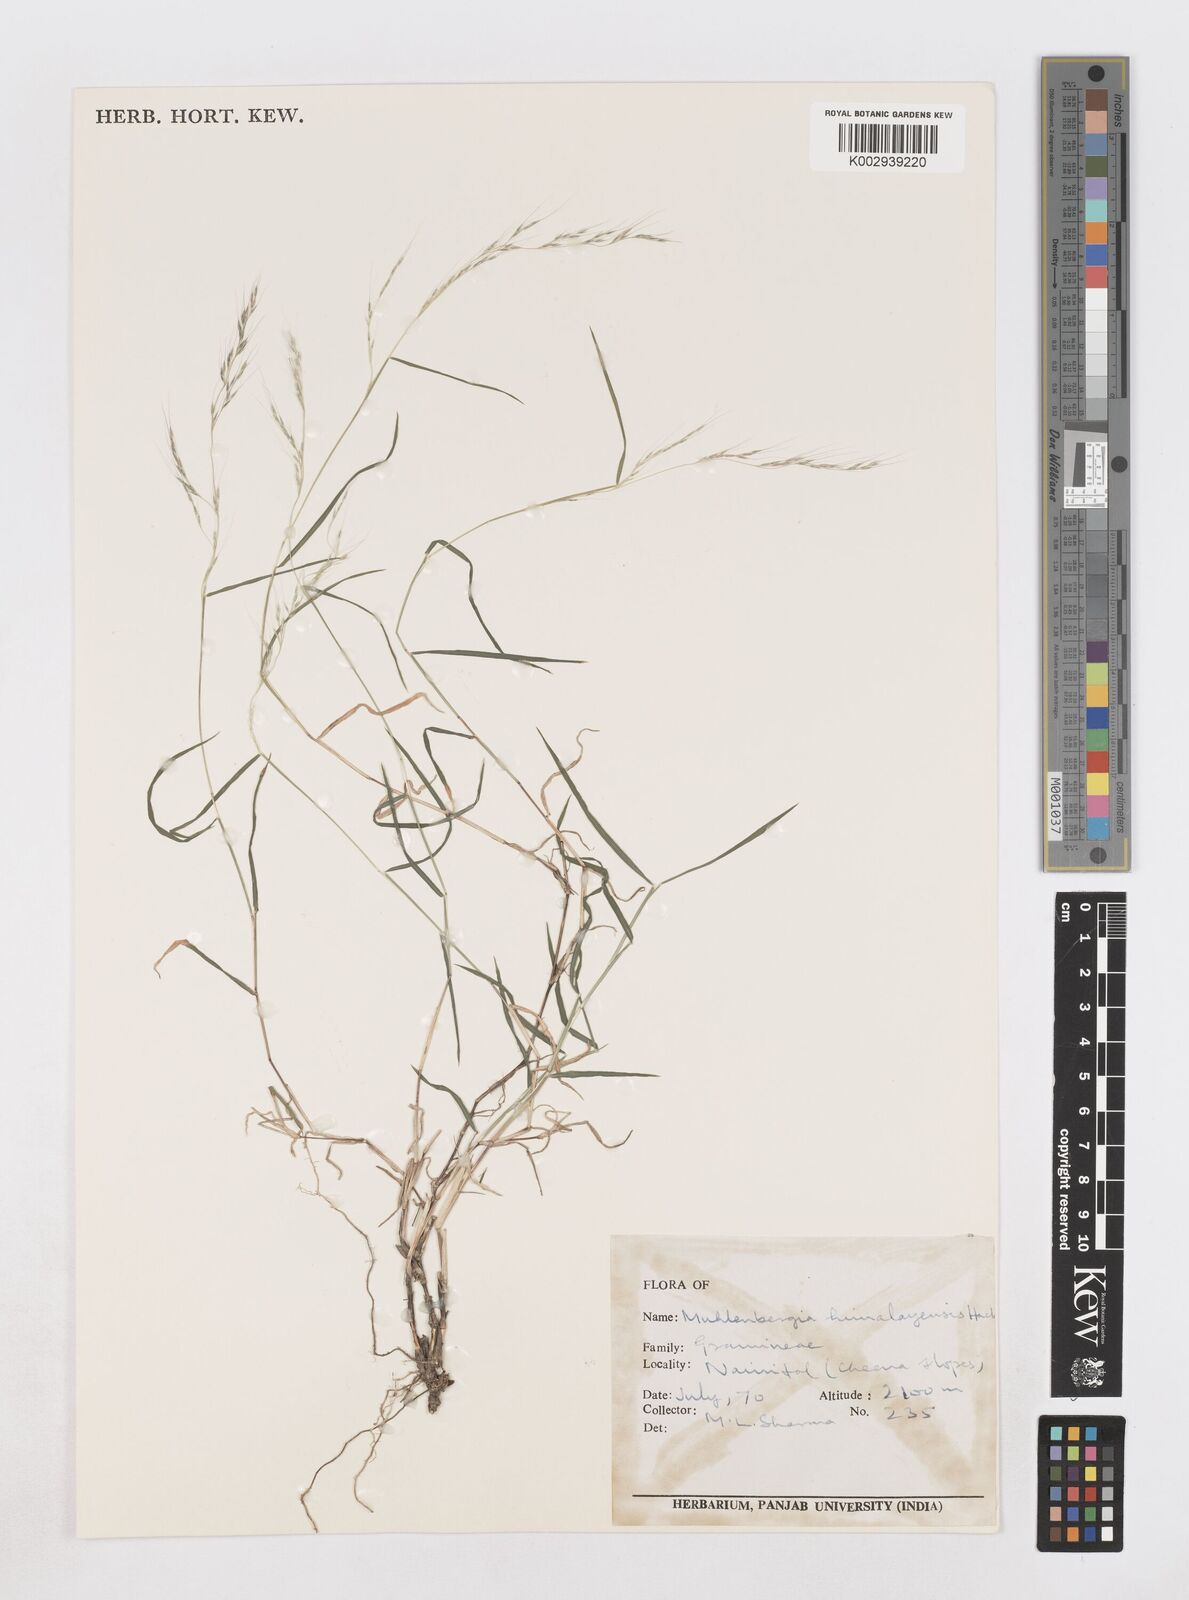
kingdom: Plantae
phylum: Tracheophyta
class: Liliopsida
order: Poales
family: Poaceae
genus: Muhlenbergia
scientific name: Muhlenbergia himalayensis
